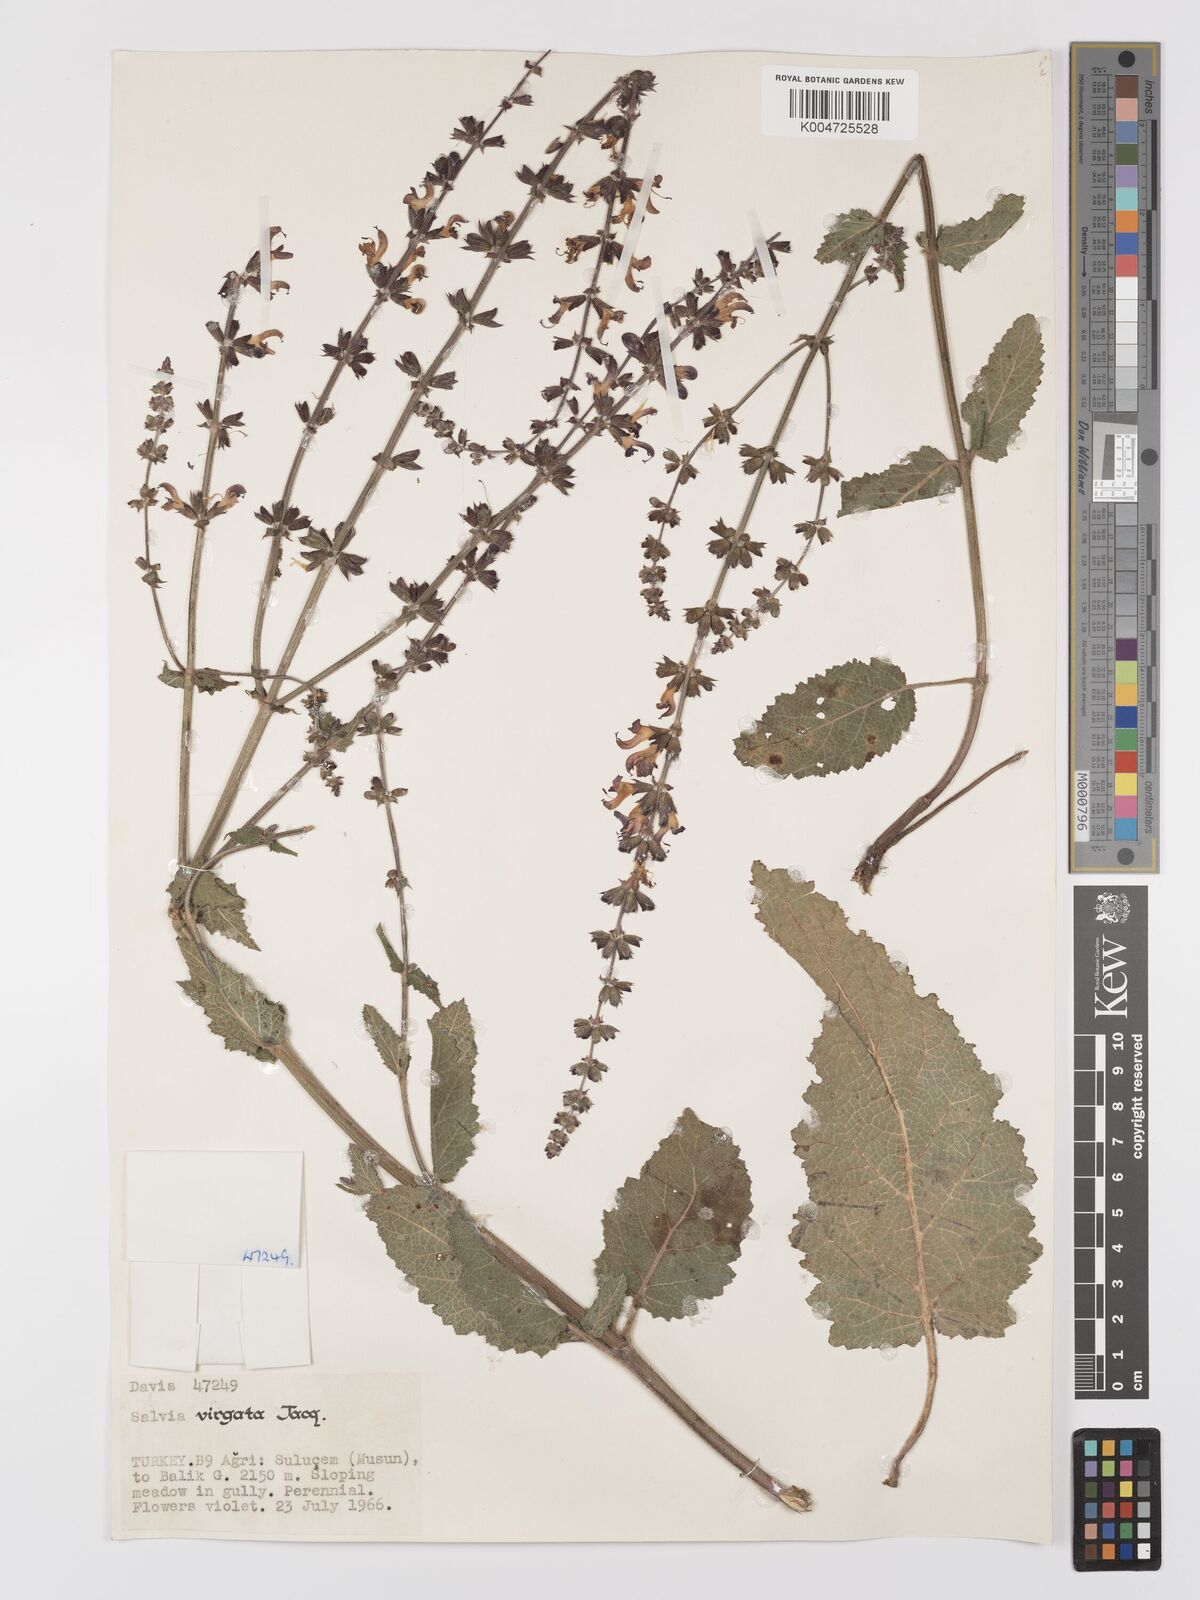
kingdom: Plantae
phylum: Tracheophyta
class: Magnoliopsida
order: Lamiales
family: Lamiaceae
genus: Salvia
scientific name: Salvia
